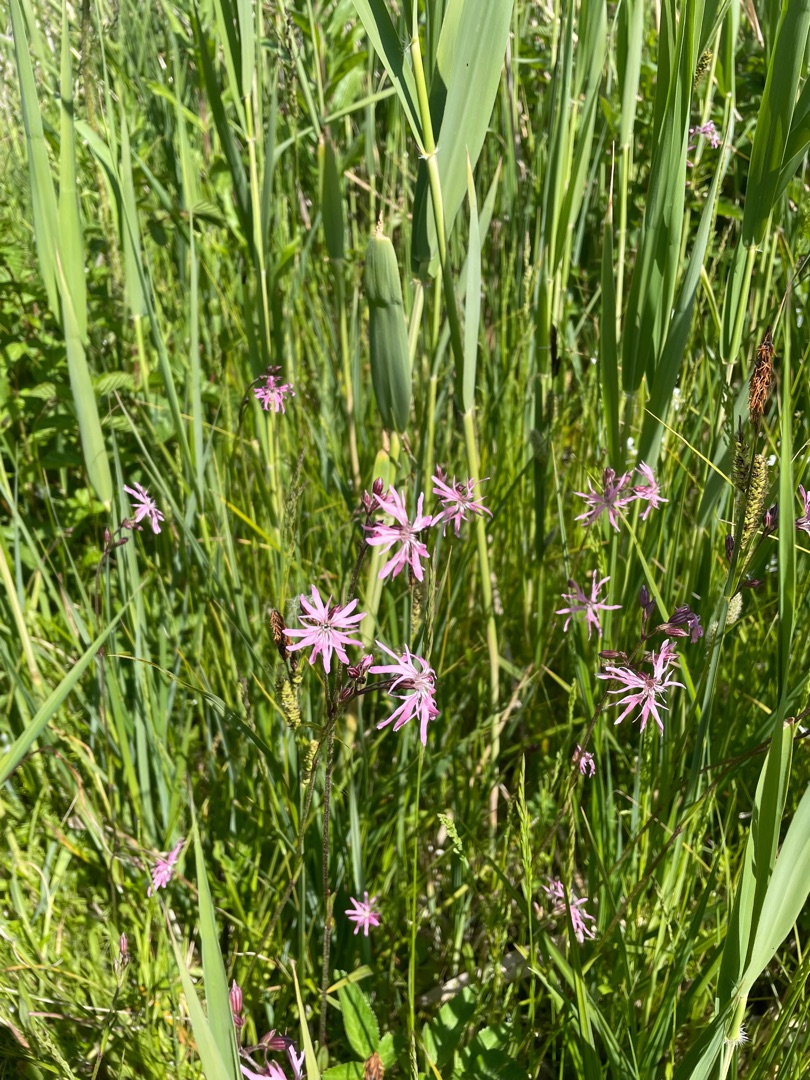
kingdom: Plantae
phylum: Tracheophyta
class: Magnoliopsida
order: Caryophyllales
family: Caryophyllaceae
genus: Silene
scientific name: Silene flos-cuculi
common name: Trævlekrone
